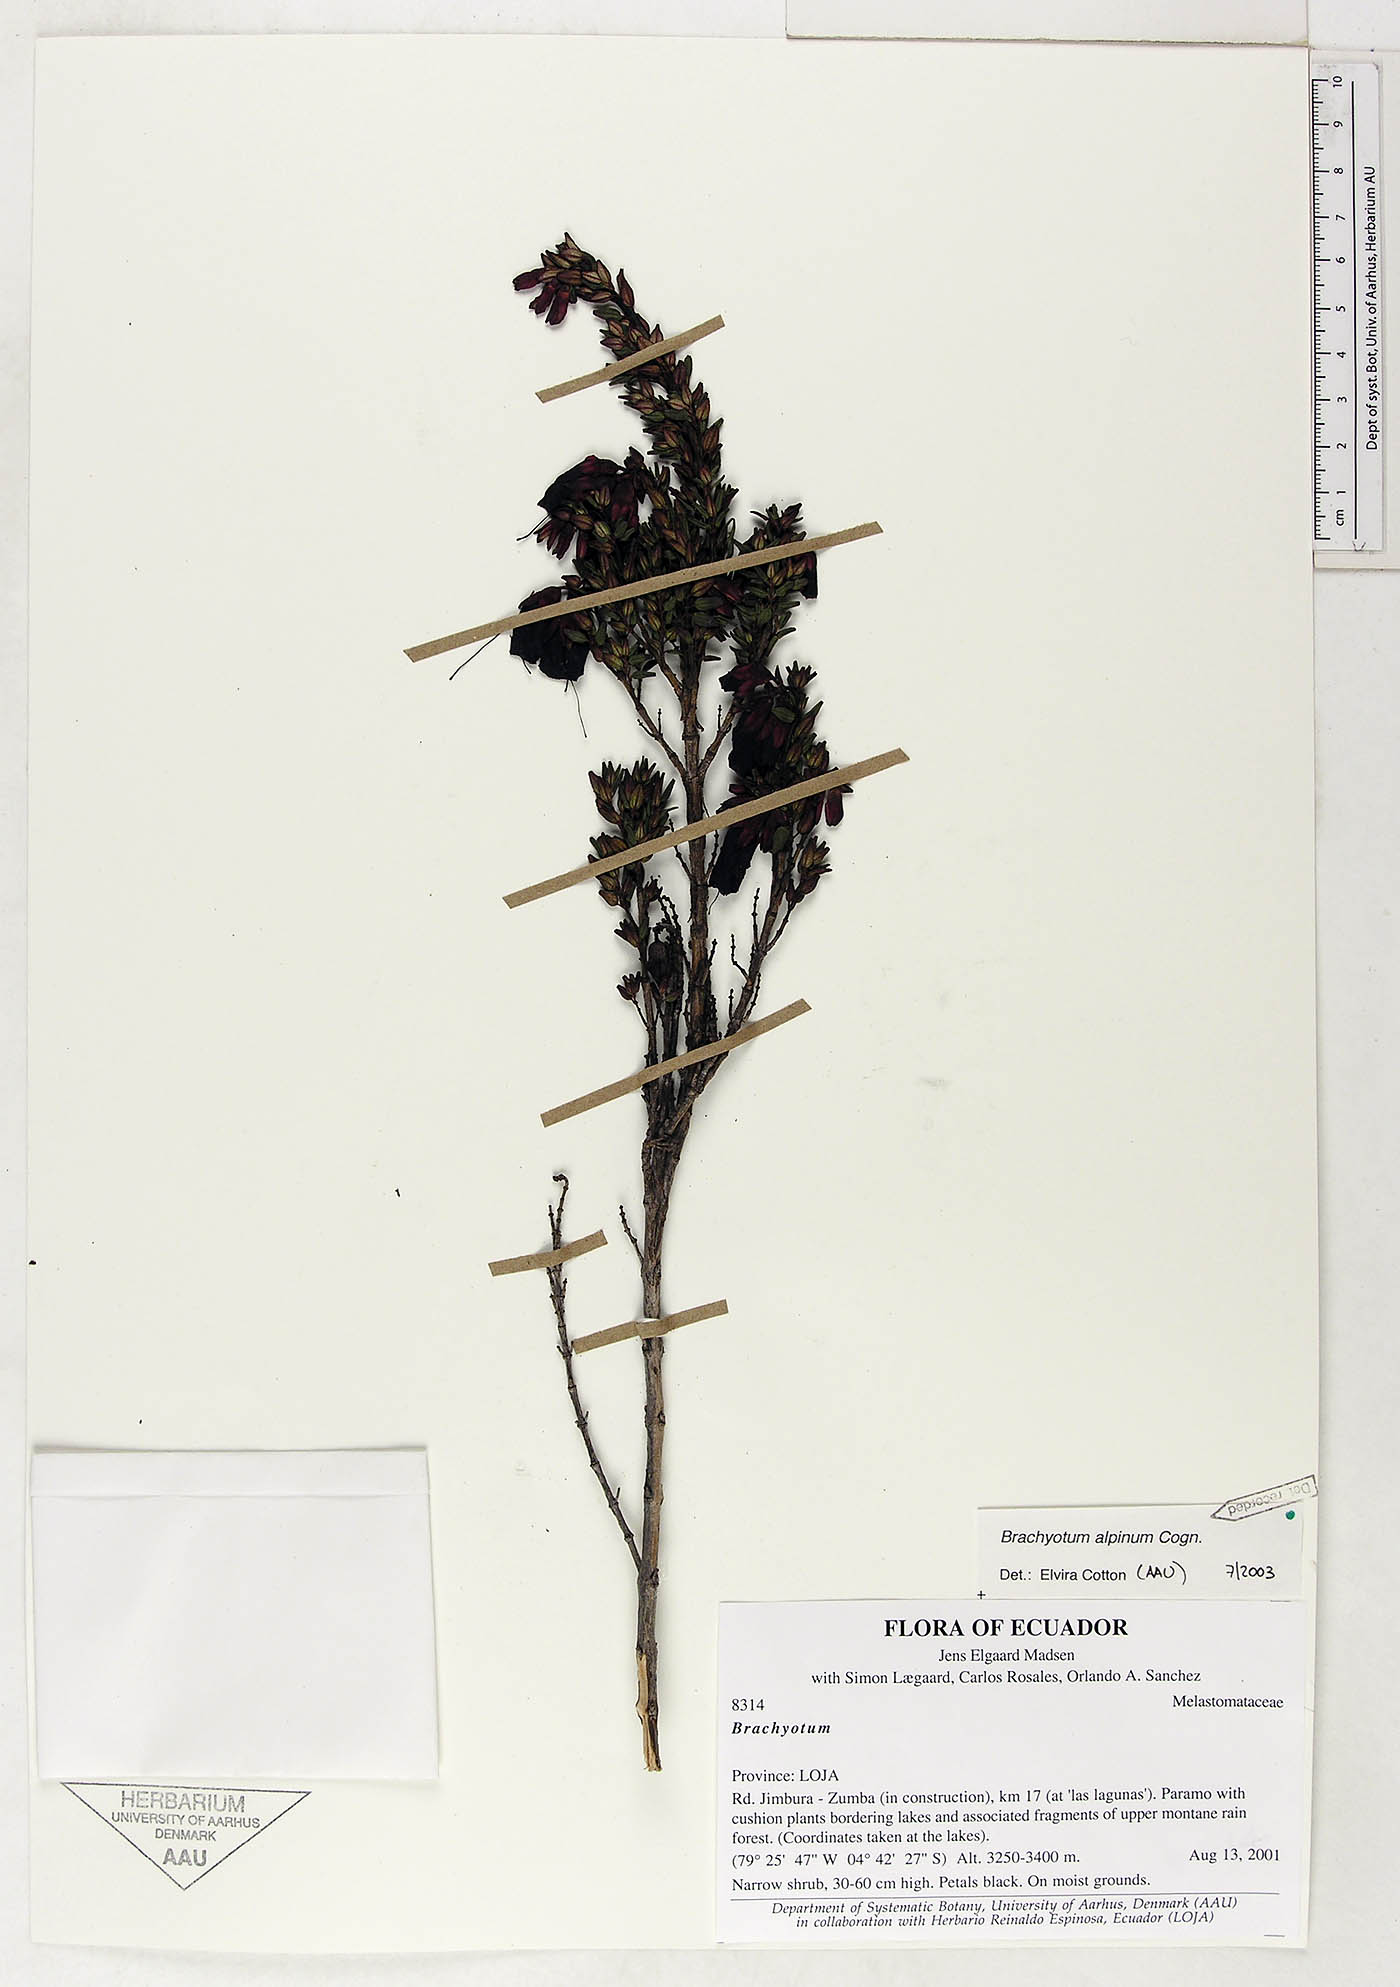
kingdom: Plantae
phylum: Tracheophyta
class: Magnoliopsida
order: Myrtales
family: Melastomataceae
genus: Brachyotum
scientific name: Brachyotum alpinum
